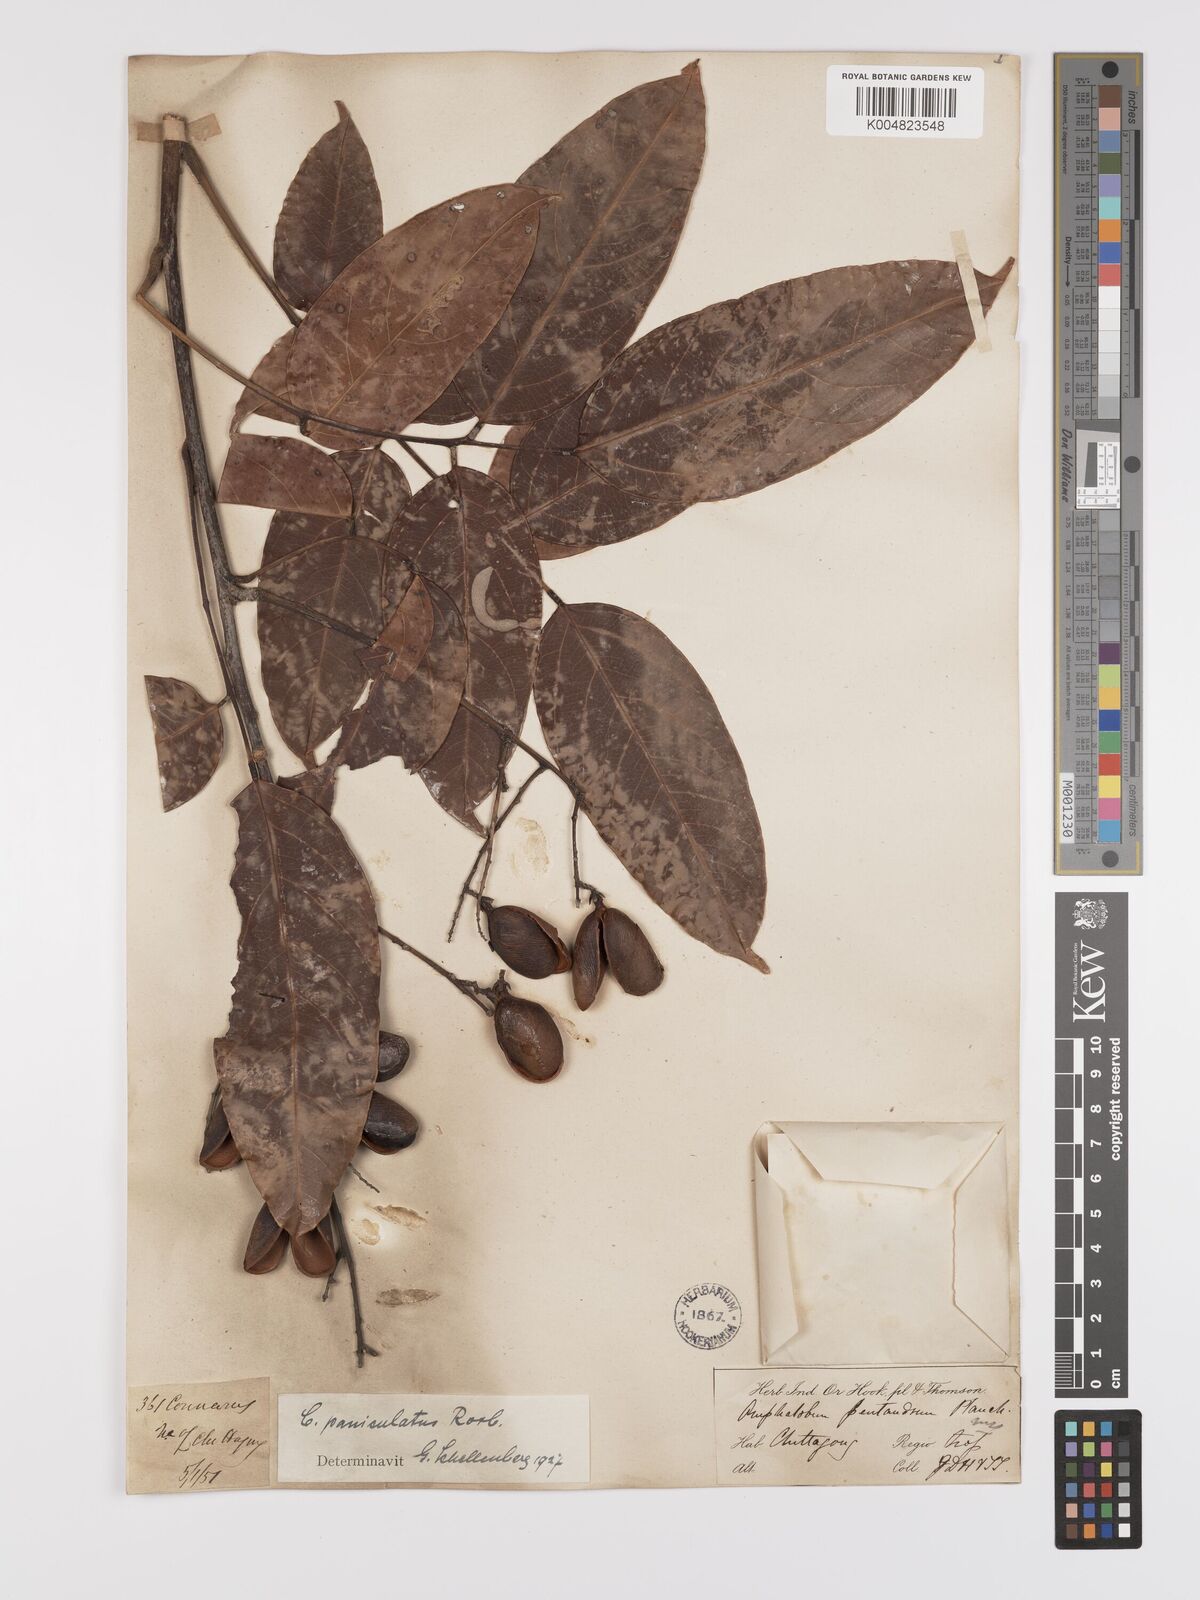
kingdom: Plantae
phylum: Tracheophyta
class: Magnoliopsida
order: Oxalidales
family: Connaraceae
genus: Connarus
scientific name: Connarus paniculatus
